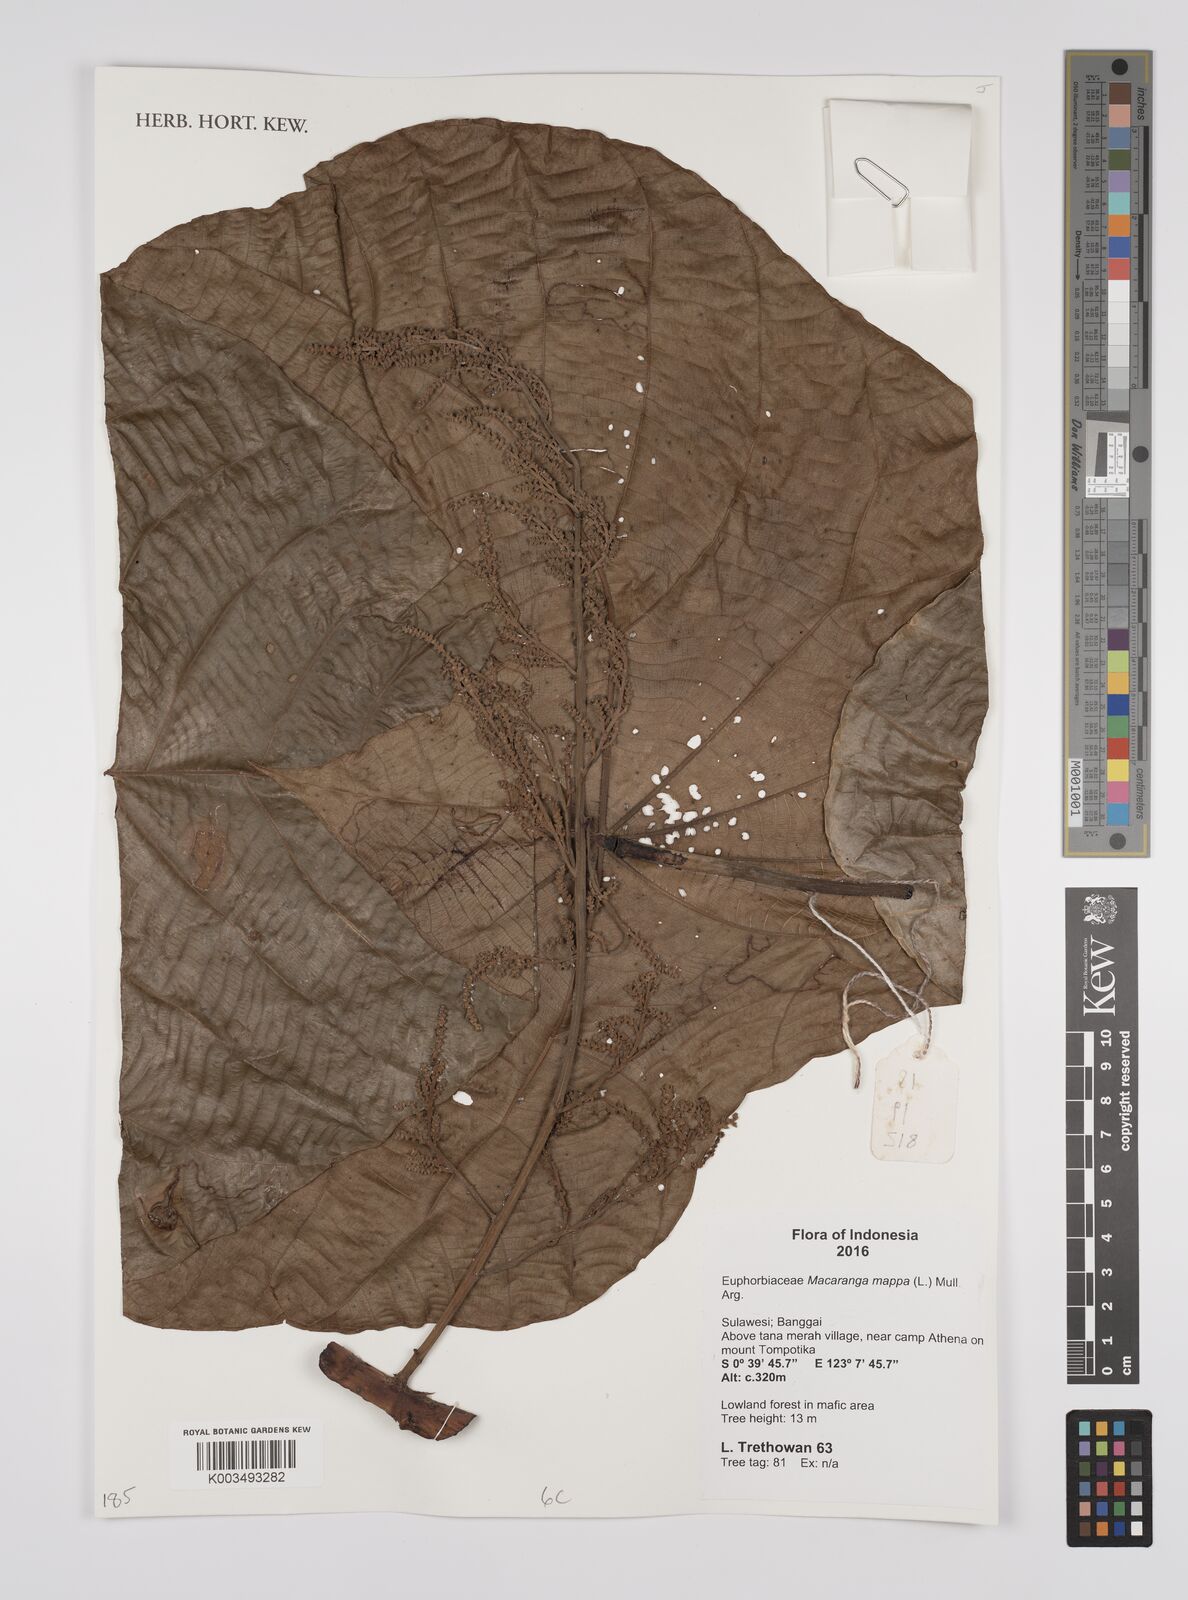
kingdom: Plantae
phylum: Tracheophyta
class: Magnoliopsida
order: Malpighiales
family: Euphorbiaceae
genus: Macaranga
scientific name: Macaranga mappa
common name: Pengua
